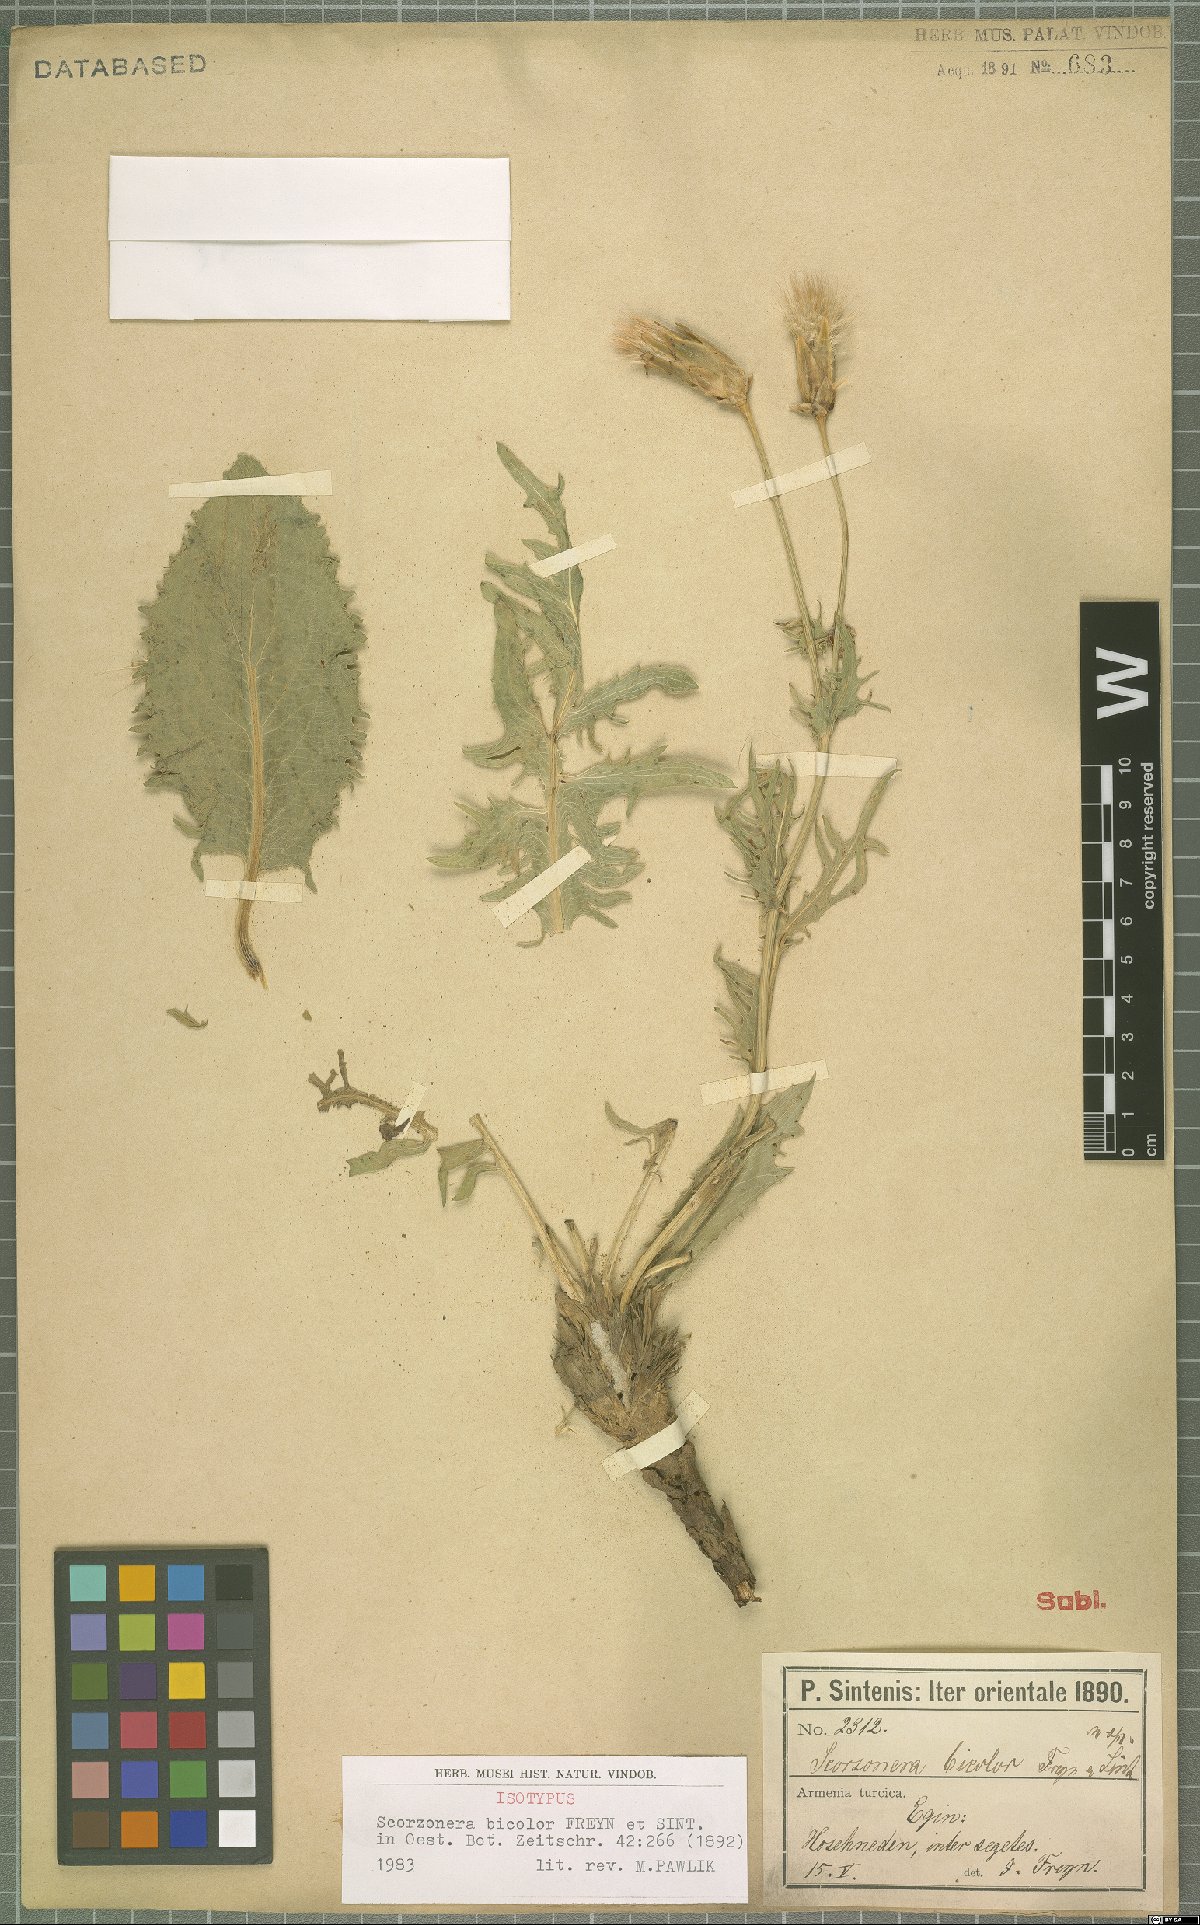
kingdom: Plantae
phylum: Tracheophyta
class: Magnoliopsida
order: Asterales
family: Asteraceae
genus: Aslia
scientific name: Aslia bicolor
